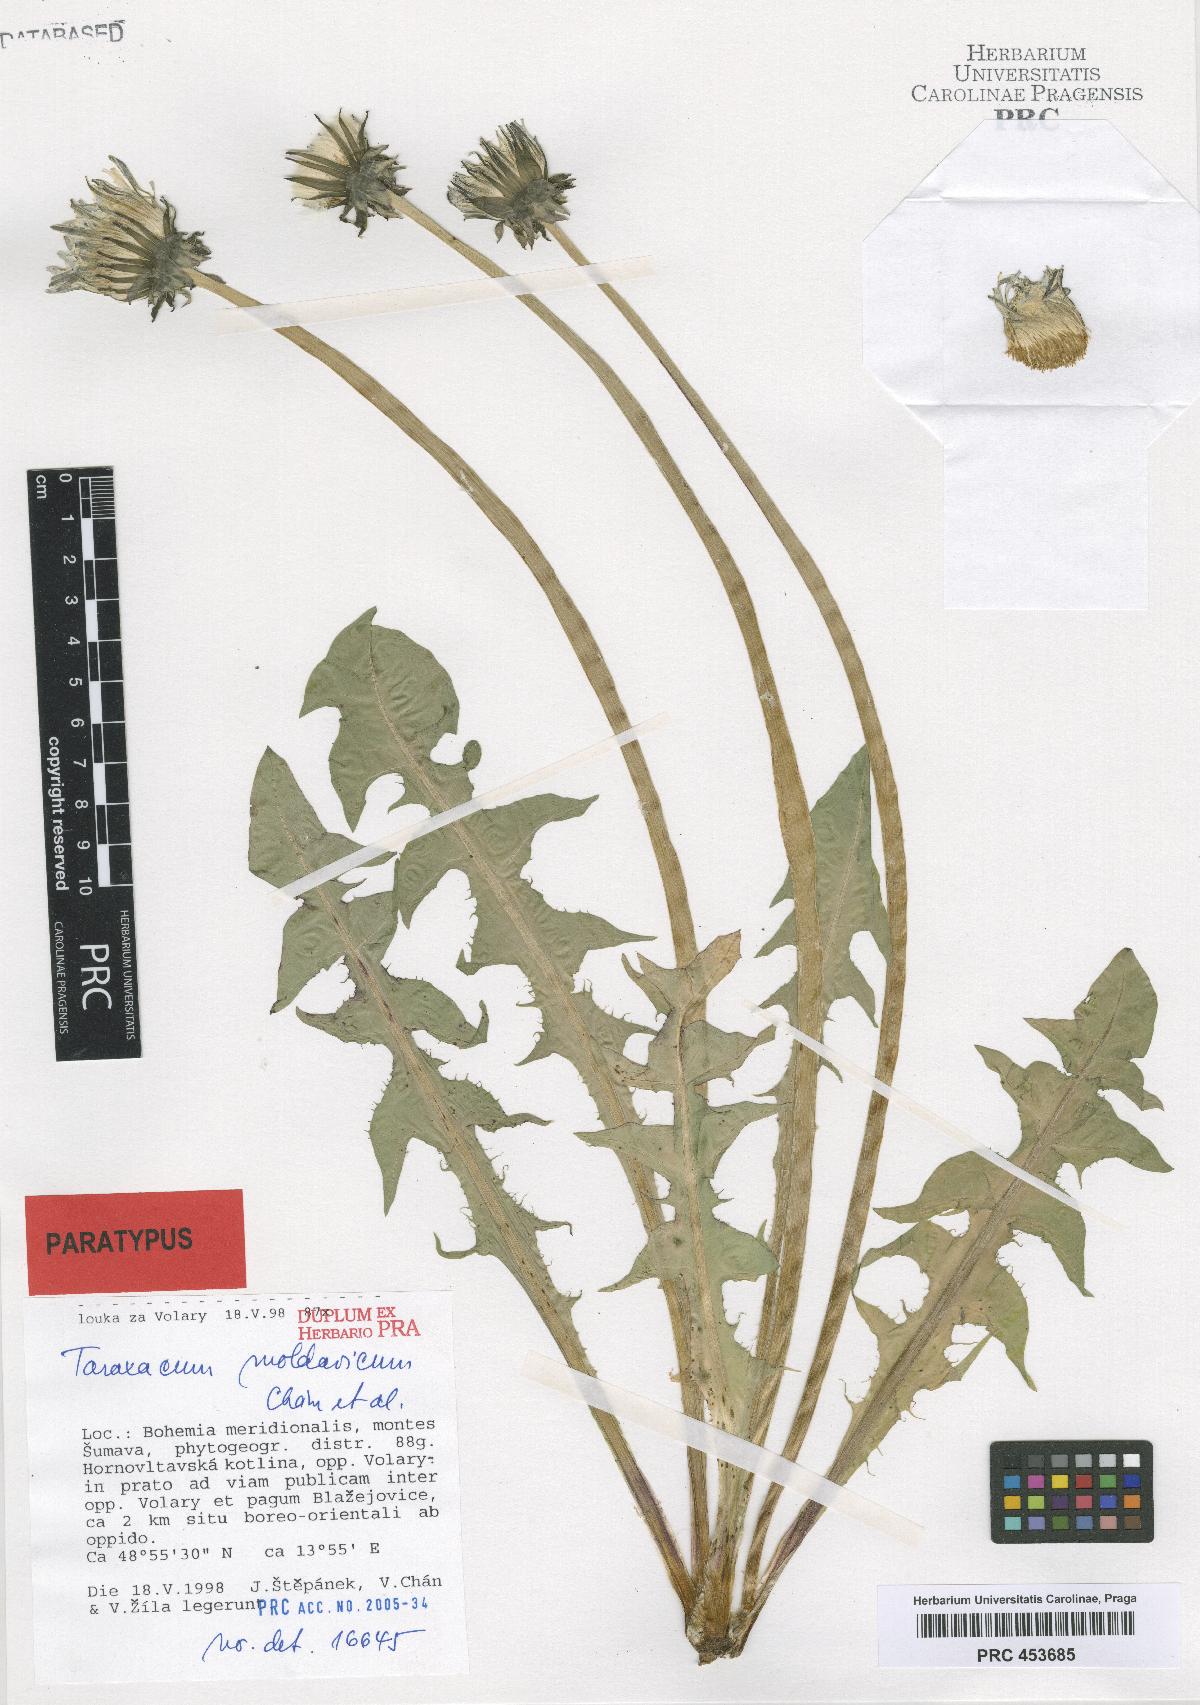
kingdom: Plantae
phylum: Tracheophyta
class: Magnoliopsida
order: Asterales
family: Asteraceae
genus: Taraxacum
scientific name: Taraxacum moldavicum
